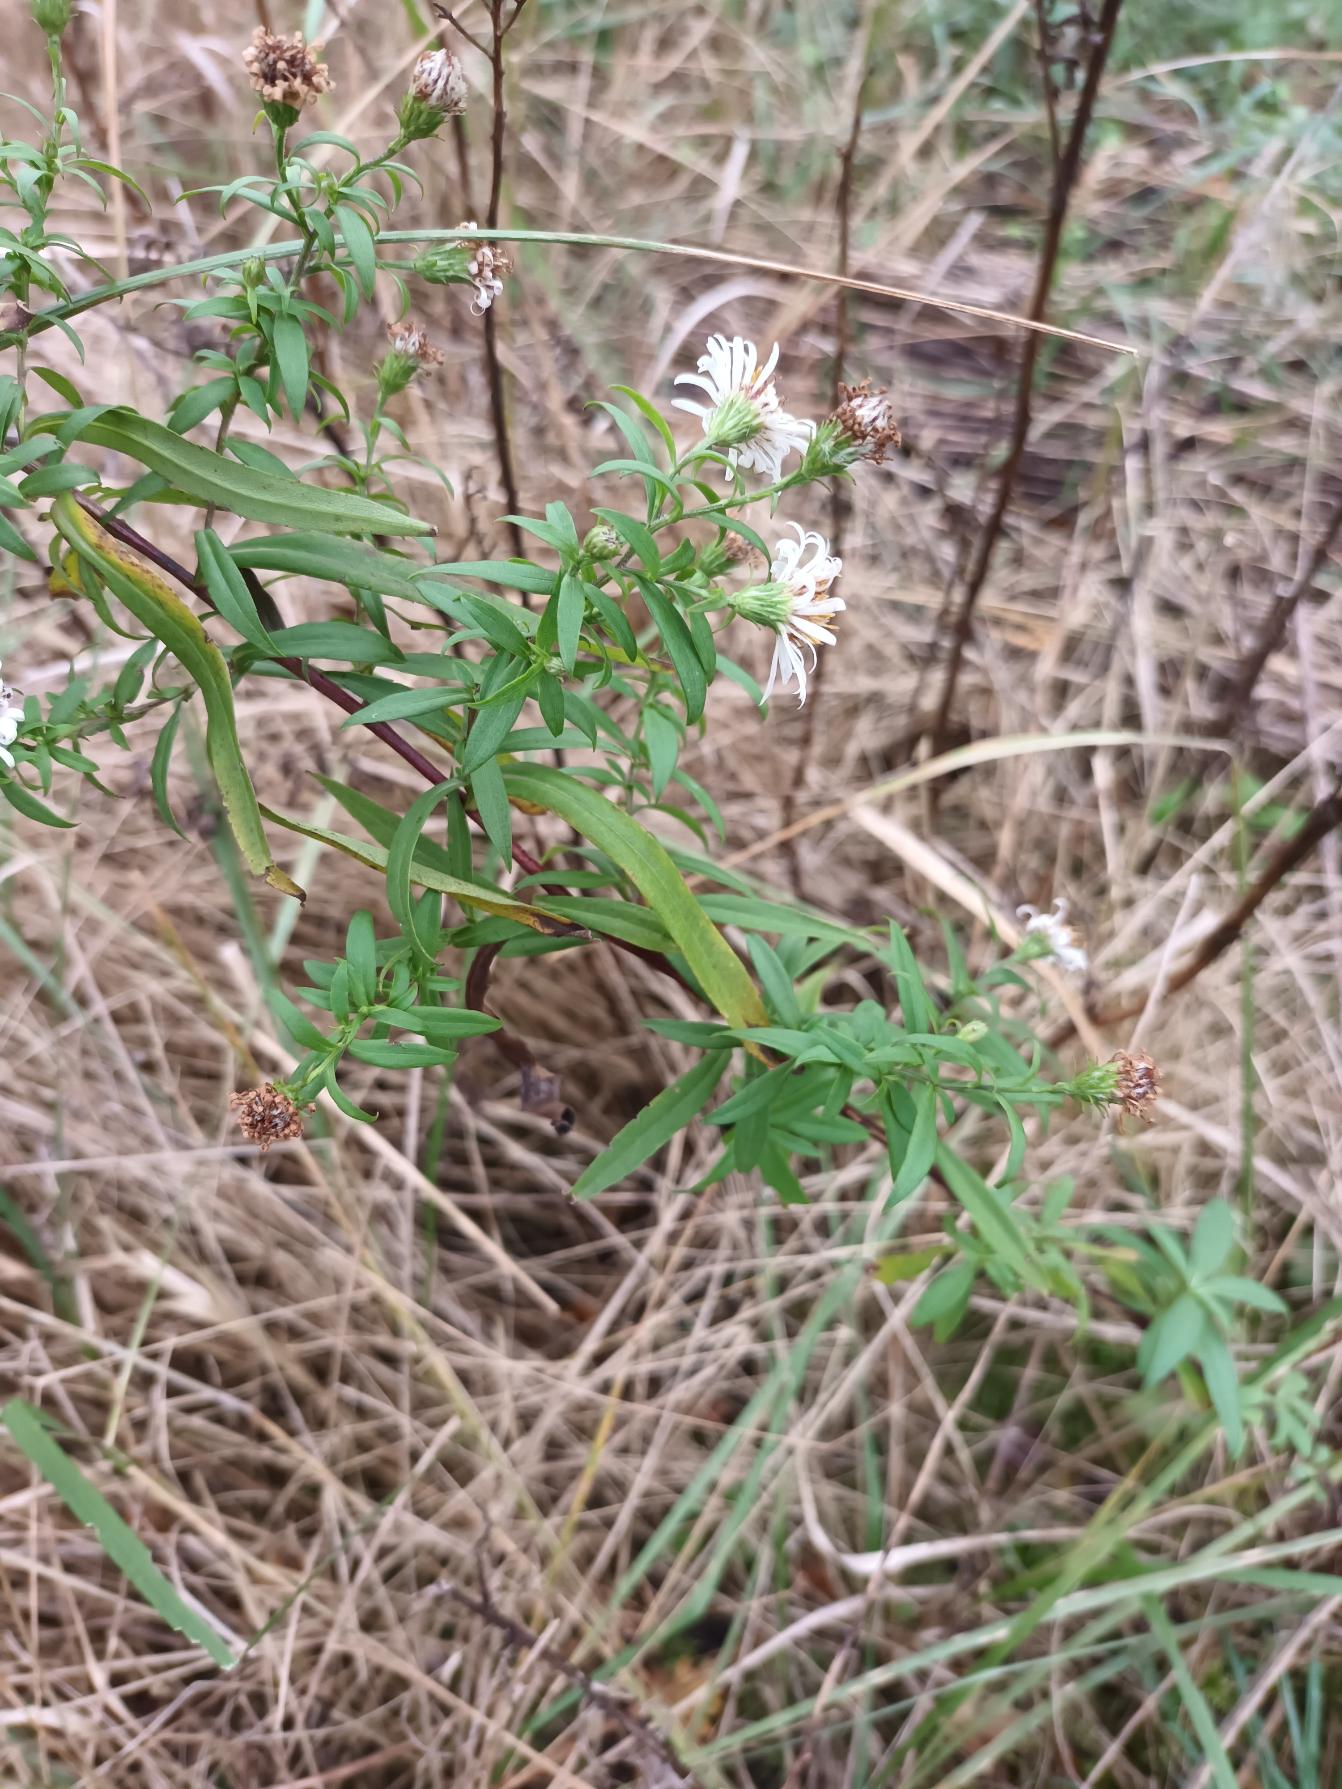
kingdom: Plantae
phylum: Tracheophyta
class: Magnoliopsida
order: Asterales
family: Asteraceae
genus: Symphyotrichum
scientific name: Symphyotrichum lanceolatum
